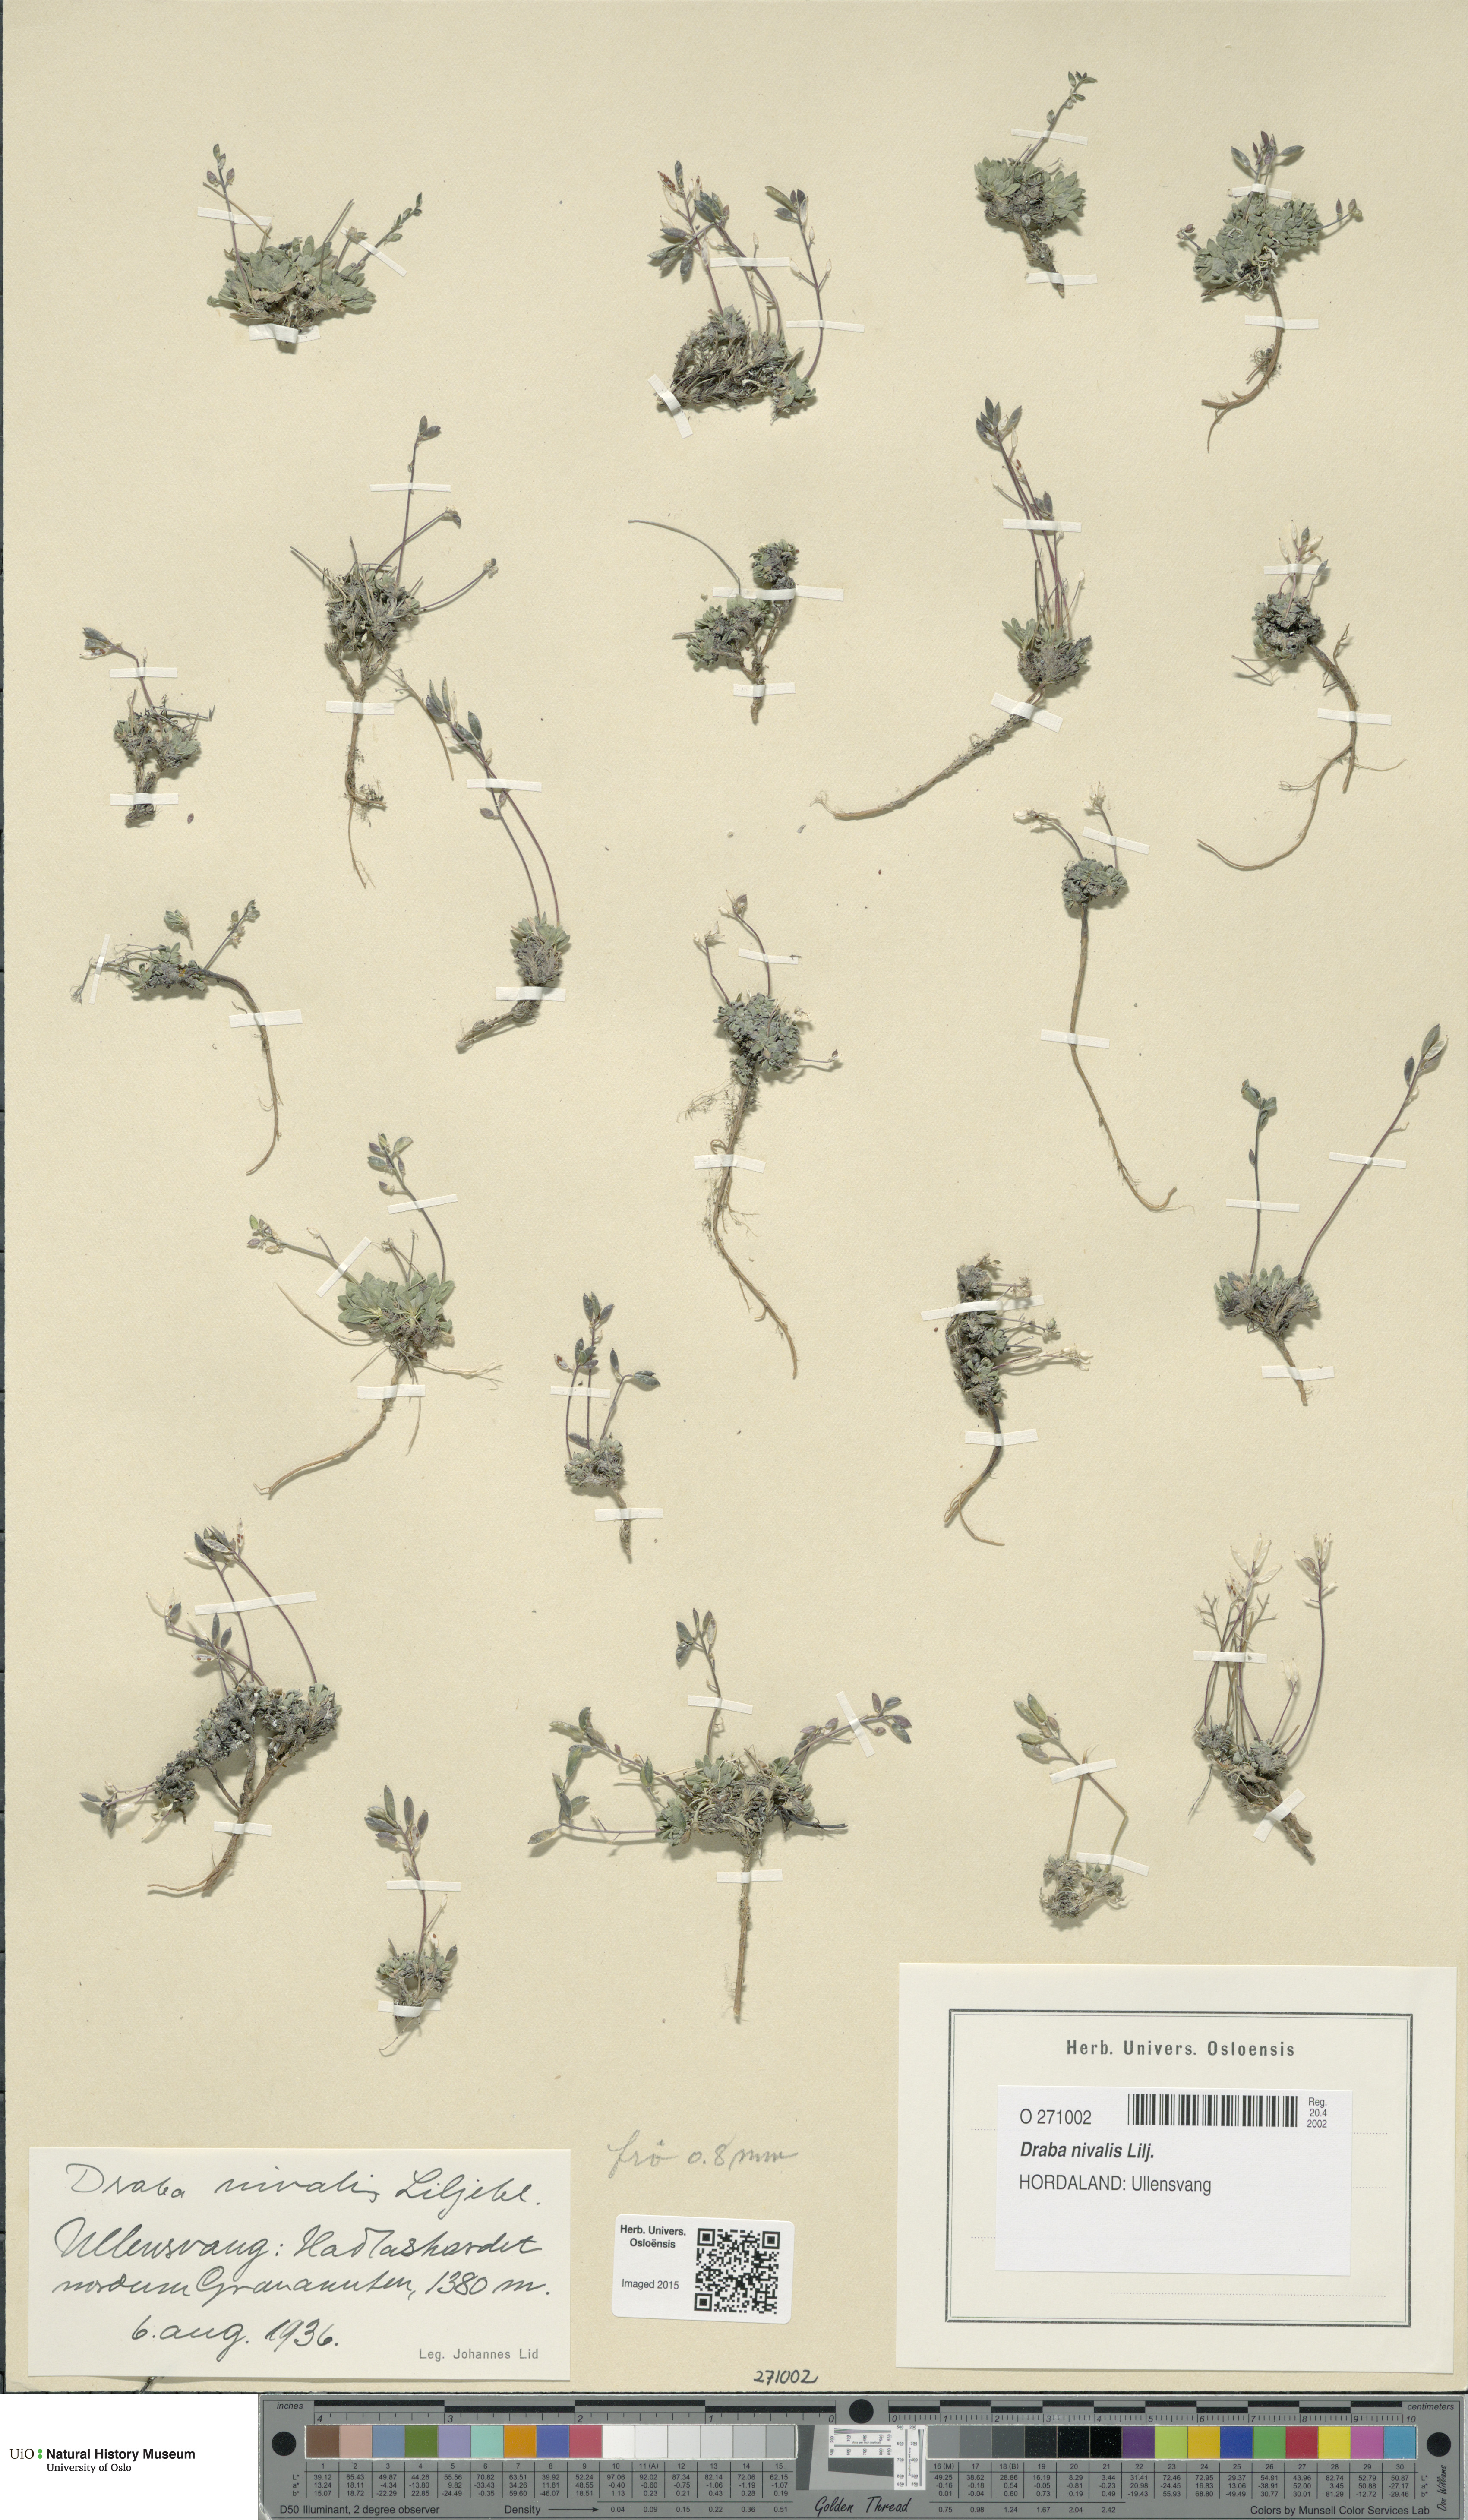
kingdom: Plantae
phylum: Tracheophyta
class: Magnoliopsida
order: Brassicales
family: Brassicaceae
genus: Draba
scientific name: Draba nivalis
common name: Snow draba
